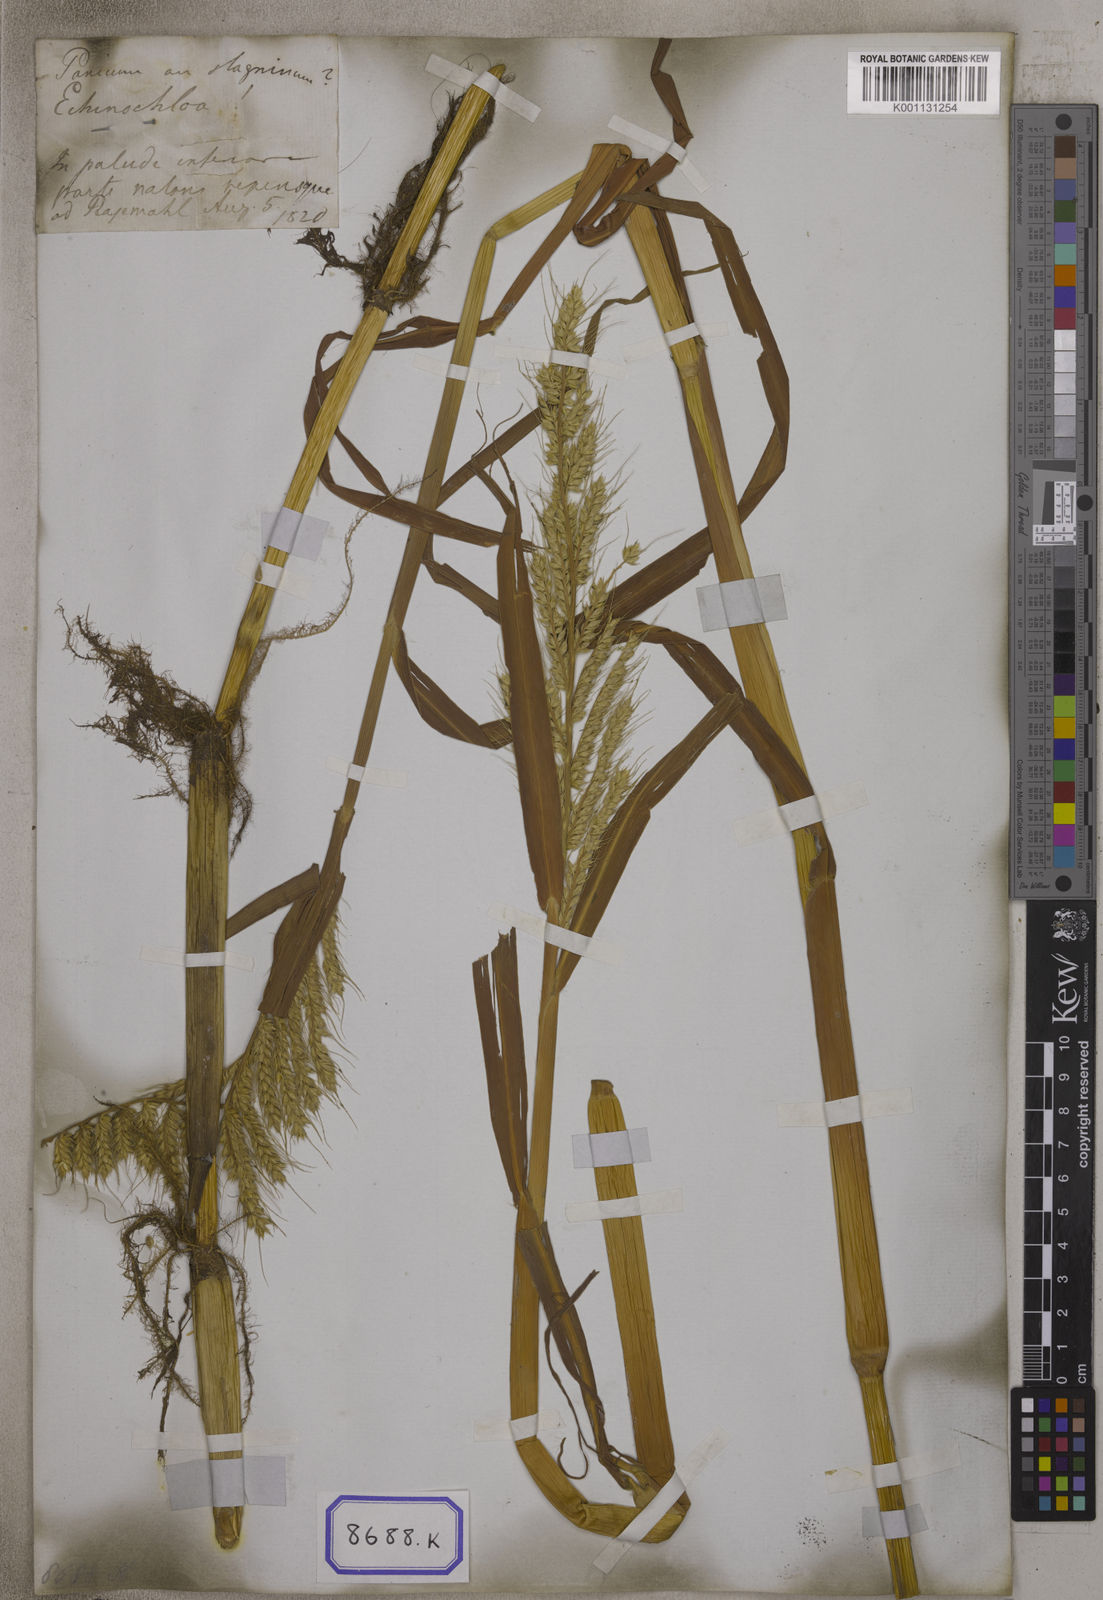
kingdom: Plantae
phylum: Tracheophyta
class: Liliopsida
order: Poales
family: Poaceae
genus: Echinochloa
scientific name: Echinochloa stagnina
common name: Burgu grass
